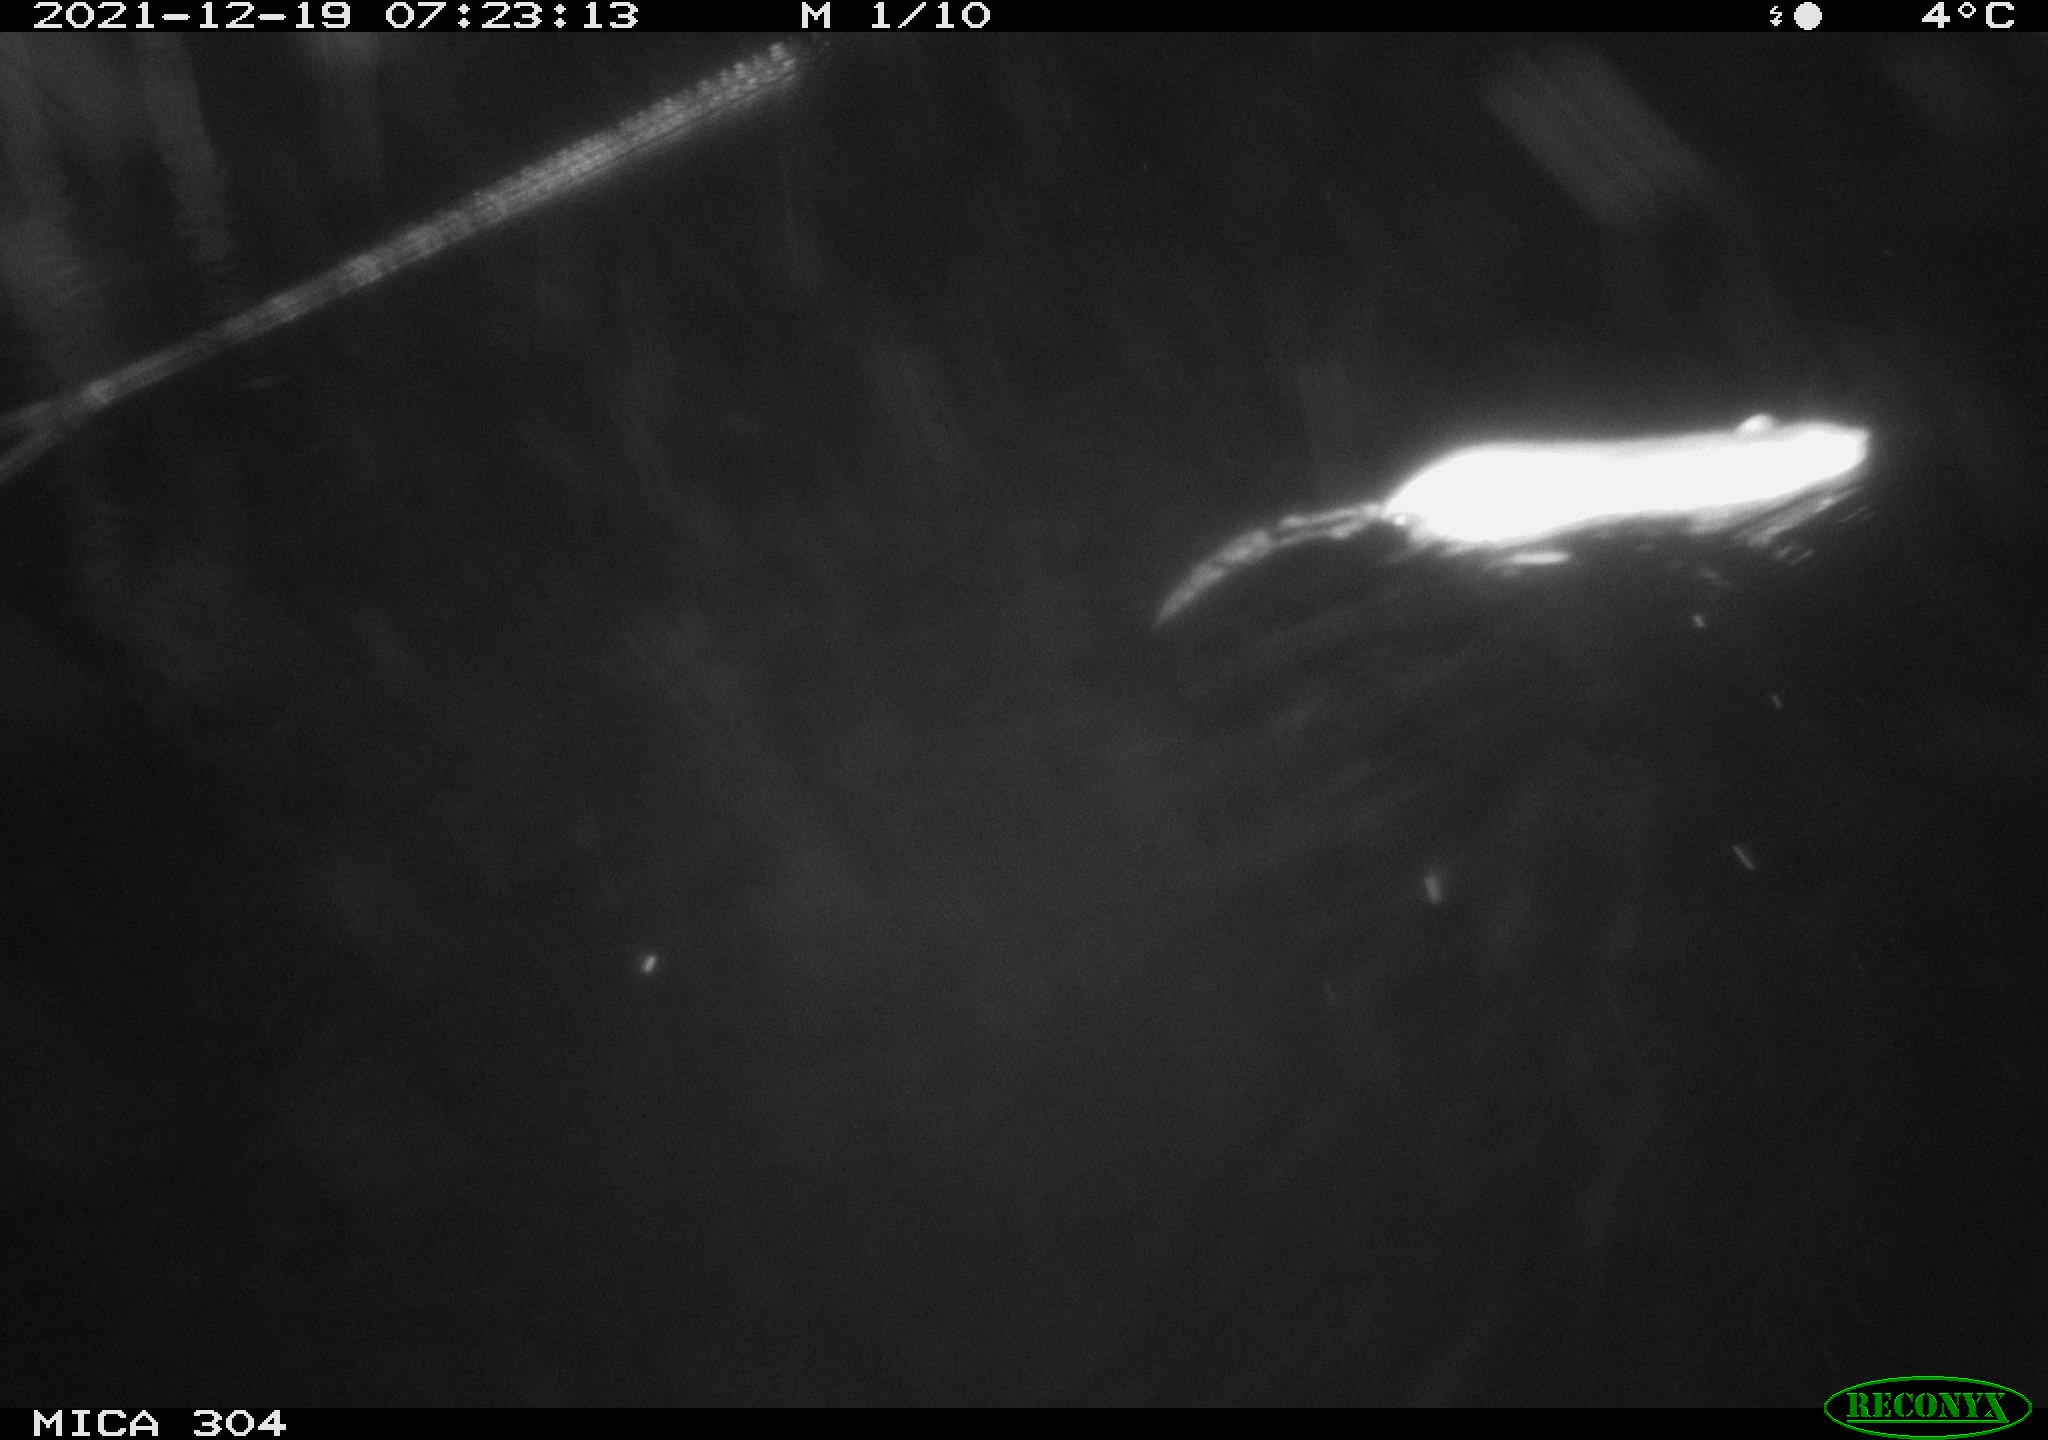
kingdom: Animalia
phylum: Chordata
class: Mammalia
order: Rodentia
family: Cricetidae
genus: Ondatra
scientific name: Ondatra zibethicus
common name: Muskrat
